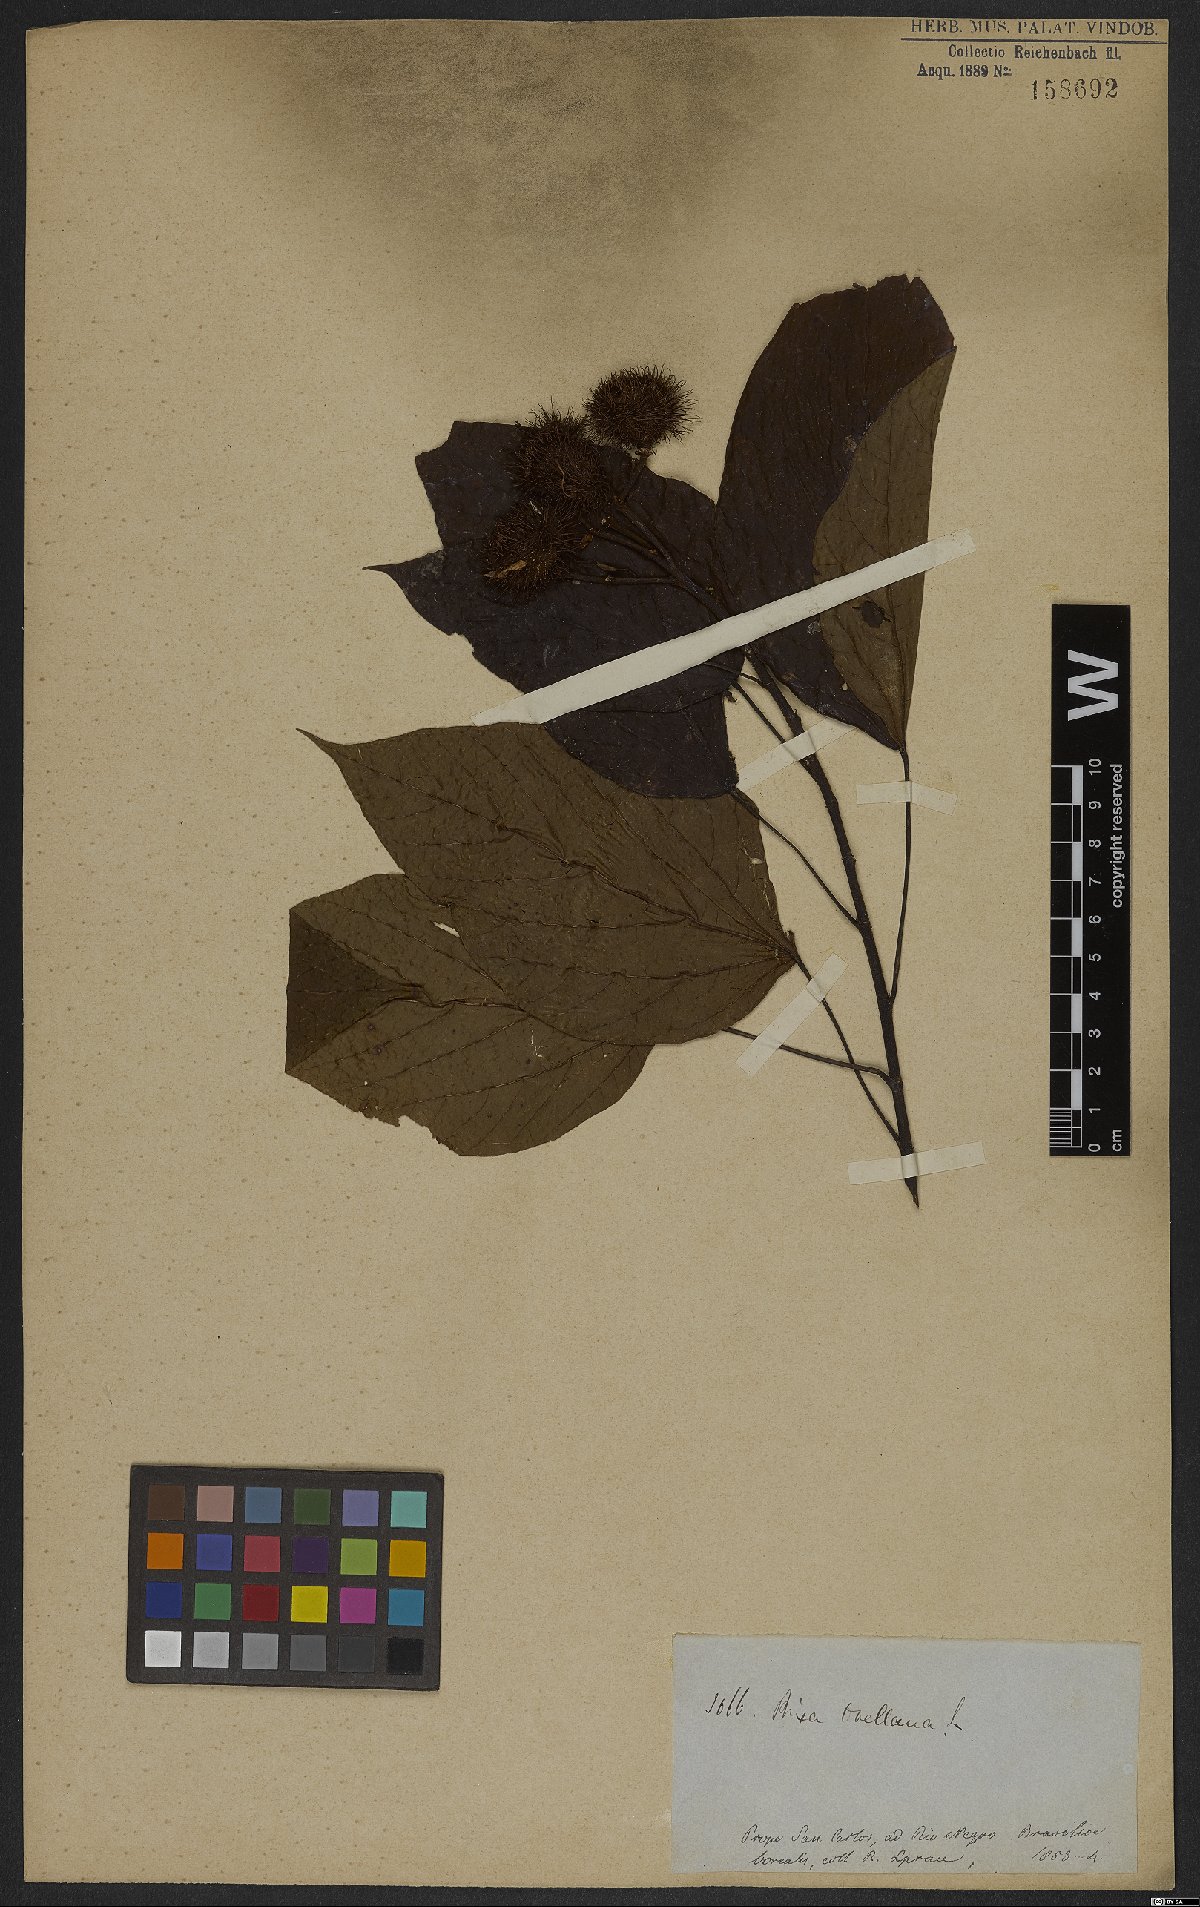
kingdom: Plantae
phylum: Tracheophyta
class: Magnoliopsida
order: Malvales
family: Bixaceae
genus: Bixa
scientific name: Bixa orellana
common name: Lipsticktree
